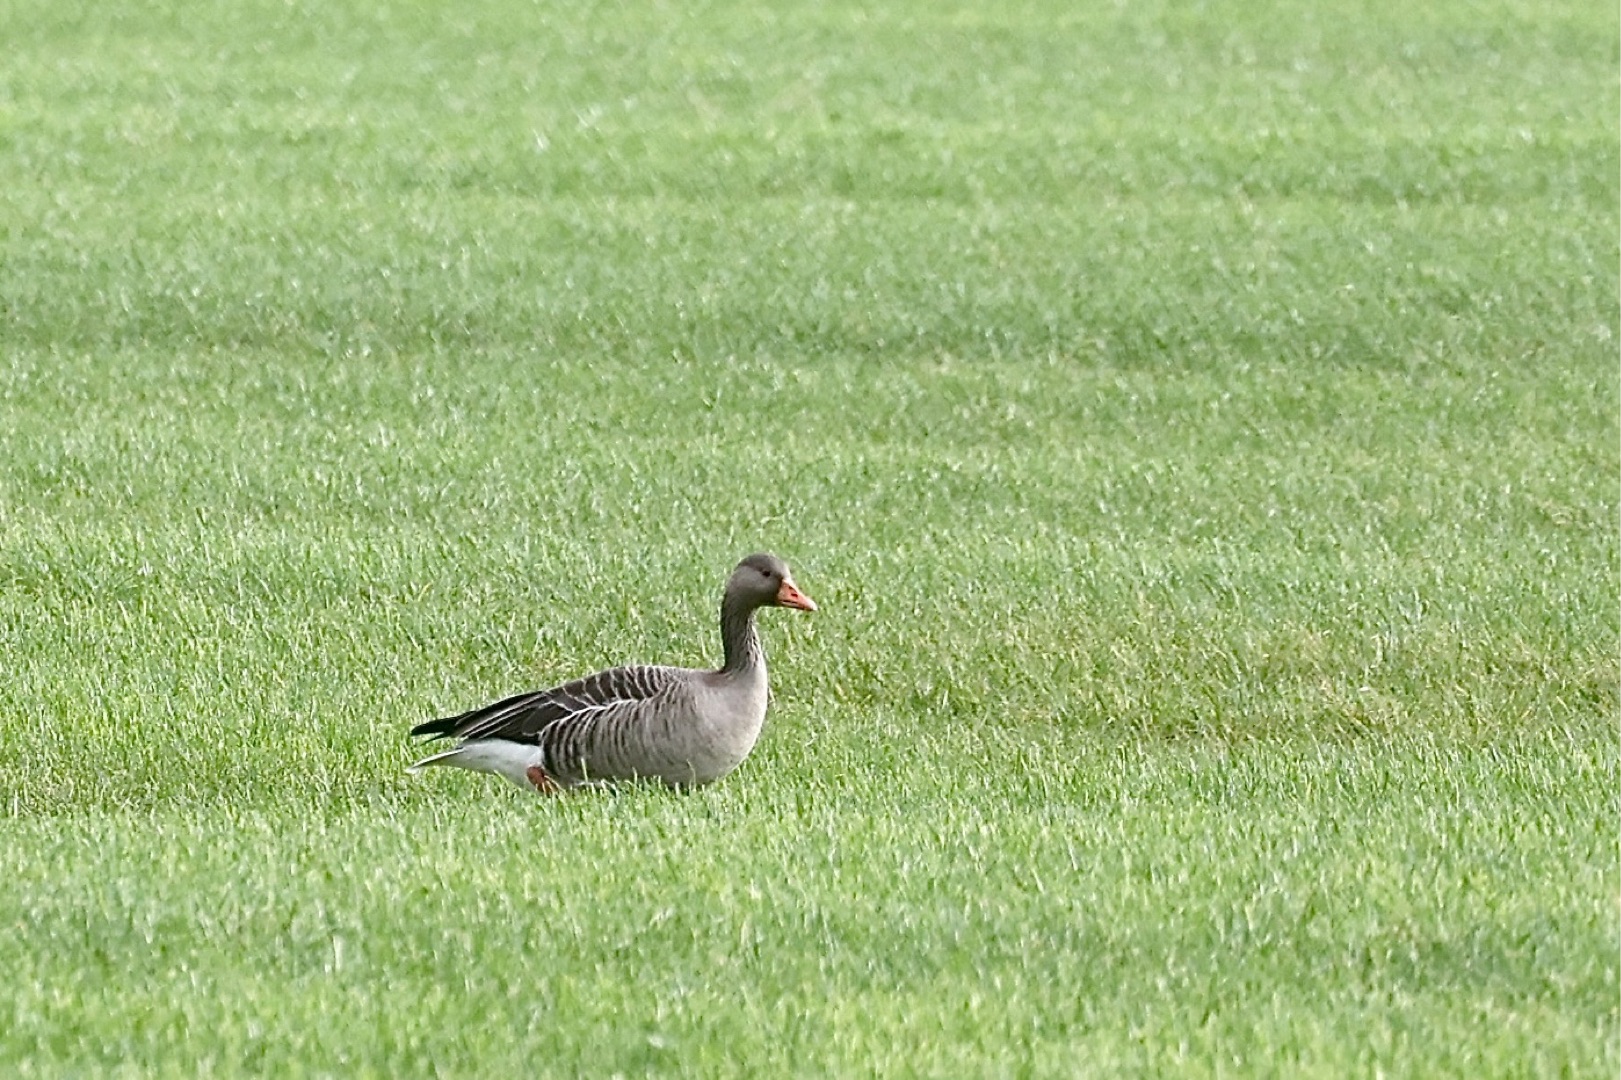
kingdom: Animalia
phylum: Chordata
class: Aves
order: Anseriformes
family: Anatidae
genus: Anser
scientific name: Anser anser
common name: Grågås
